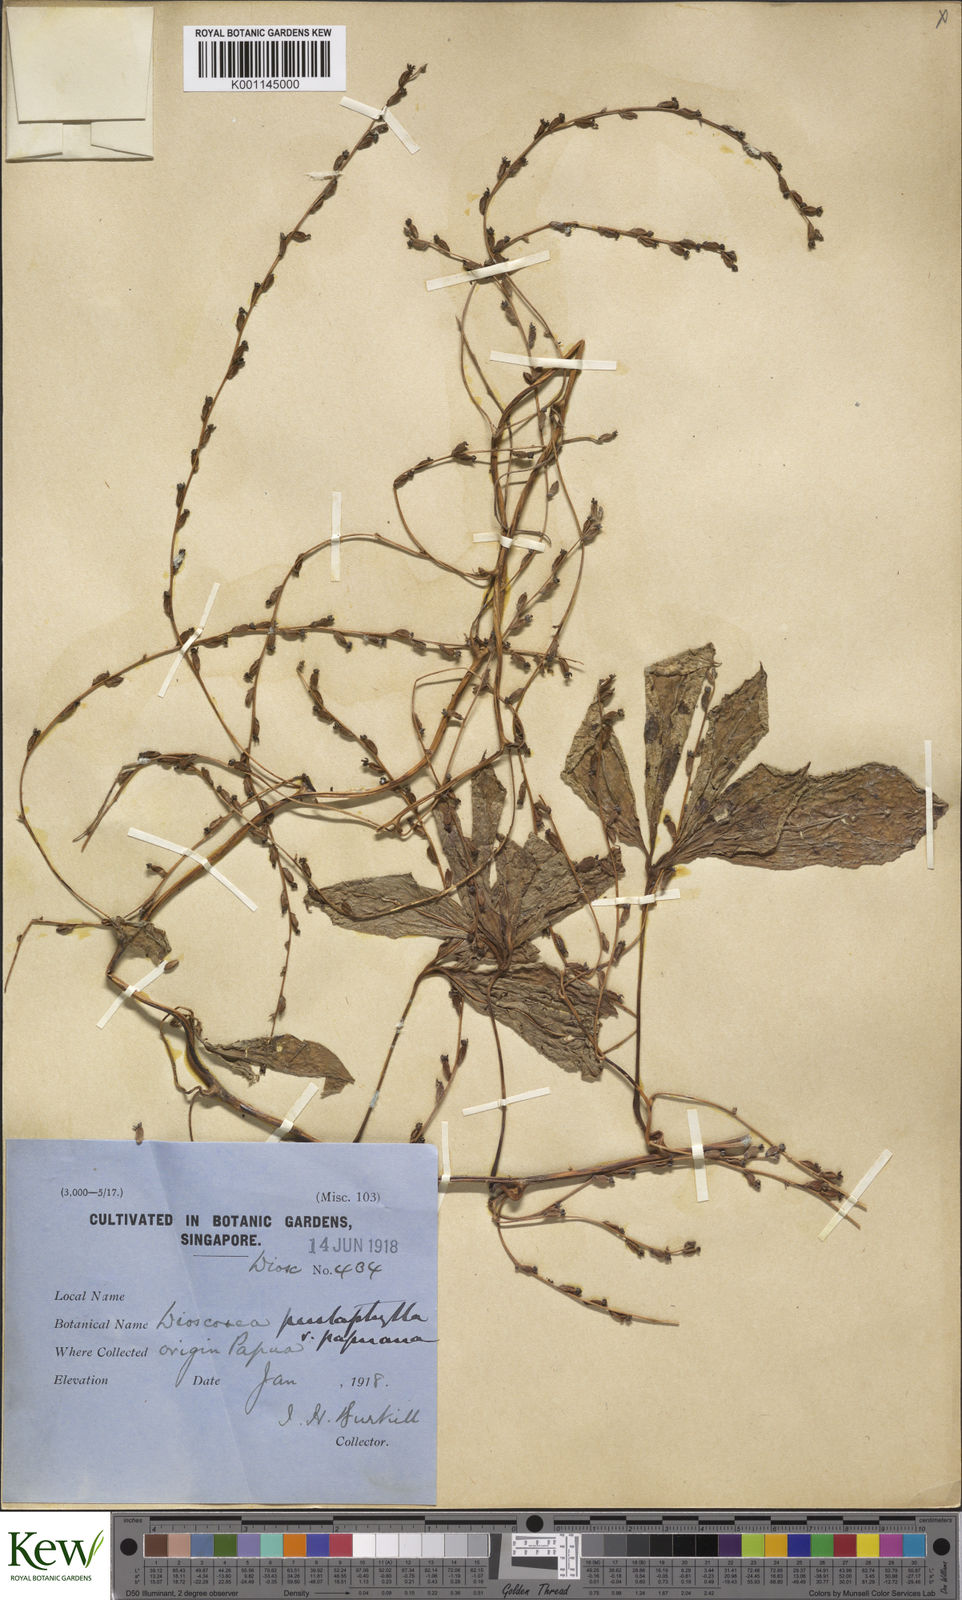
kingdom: Plantae
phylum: Tracheophyta
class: Liliopsida
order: Dioscoreales
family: Dioscoreaceae
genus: Dioscorea
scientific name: Dioscorea pentaphylla
